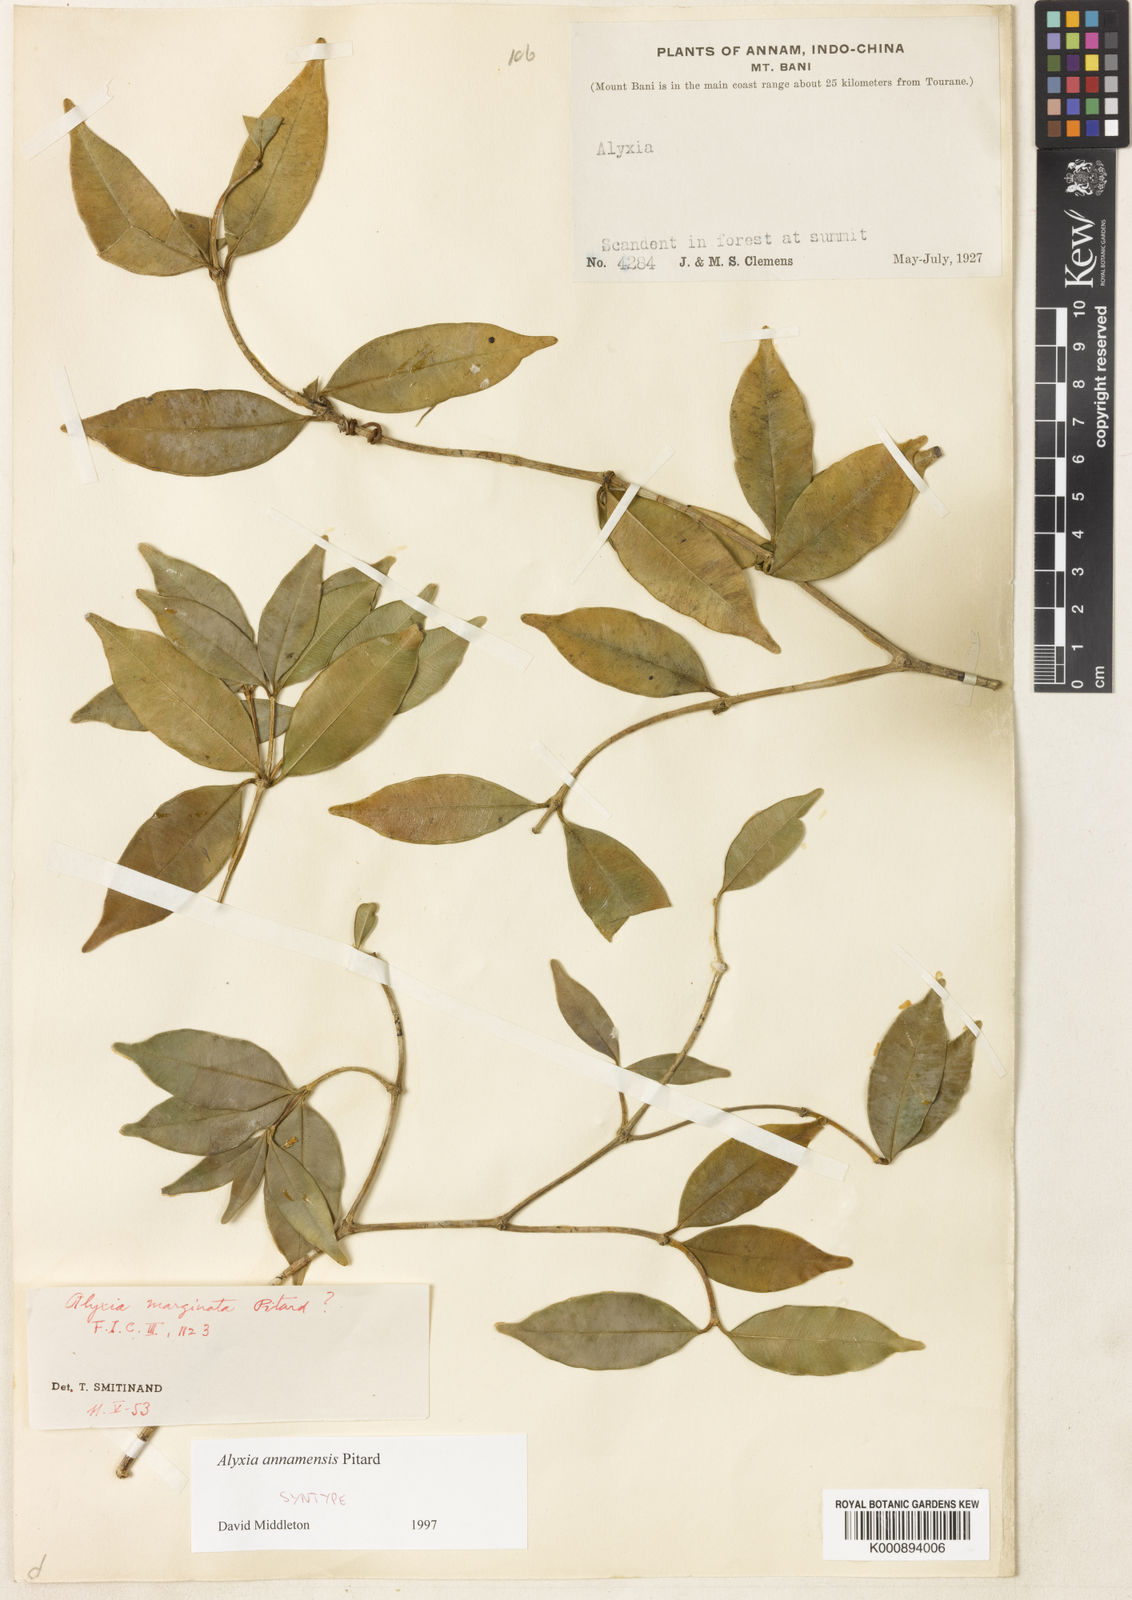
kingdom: Plantae
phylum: Tracheophyta
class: Magnoliopsida
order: Gentianales
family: Apocynaceae
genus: Alyxia
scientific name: Alyxia annamensis
